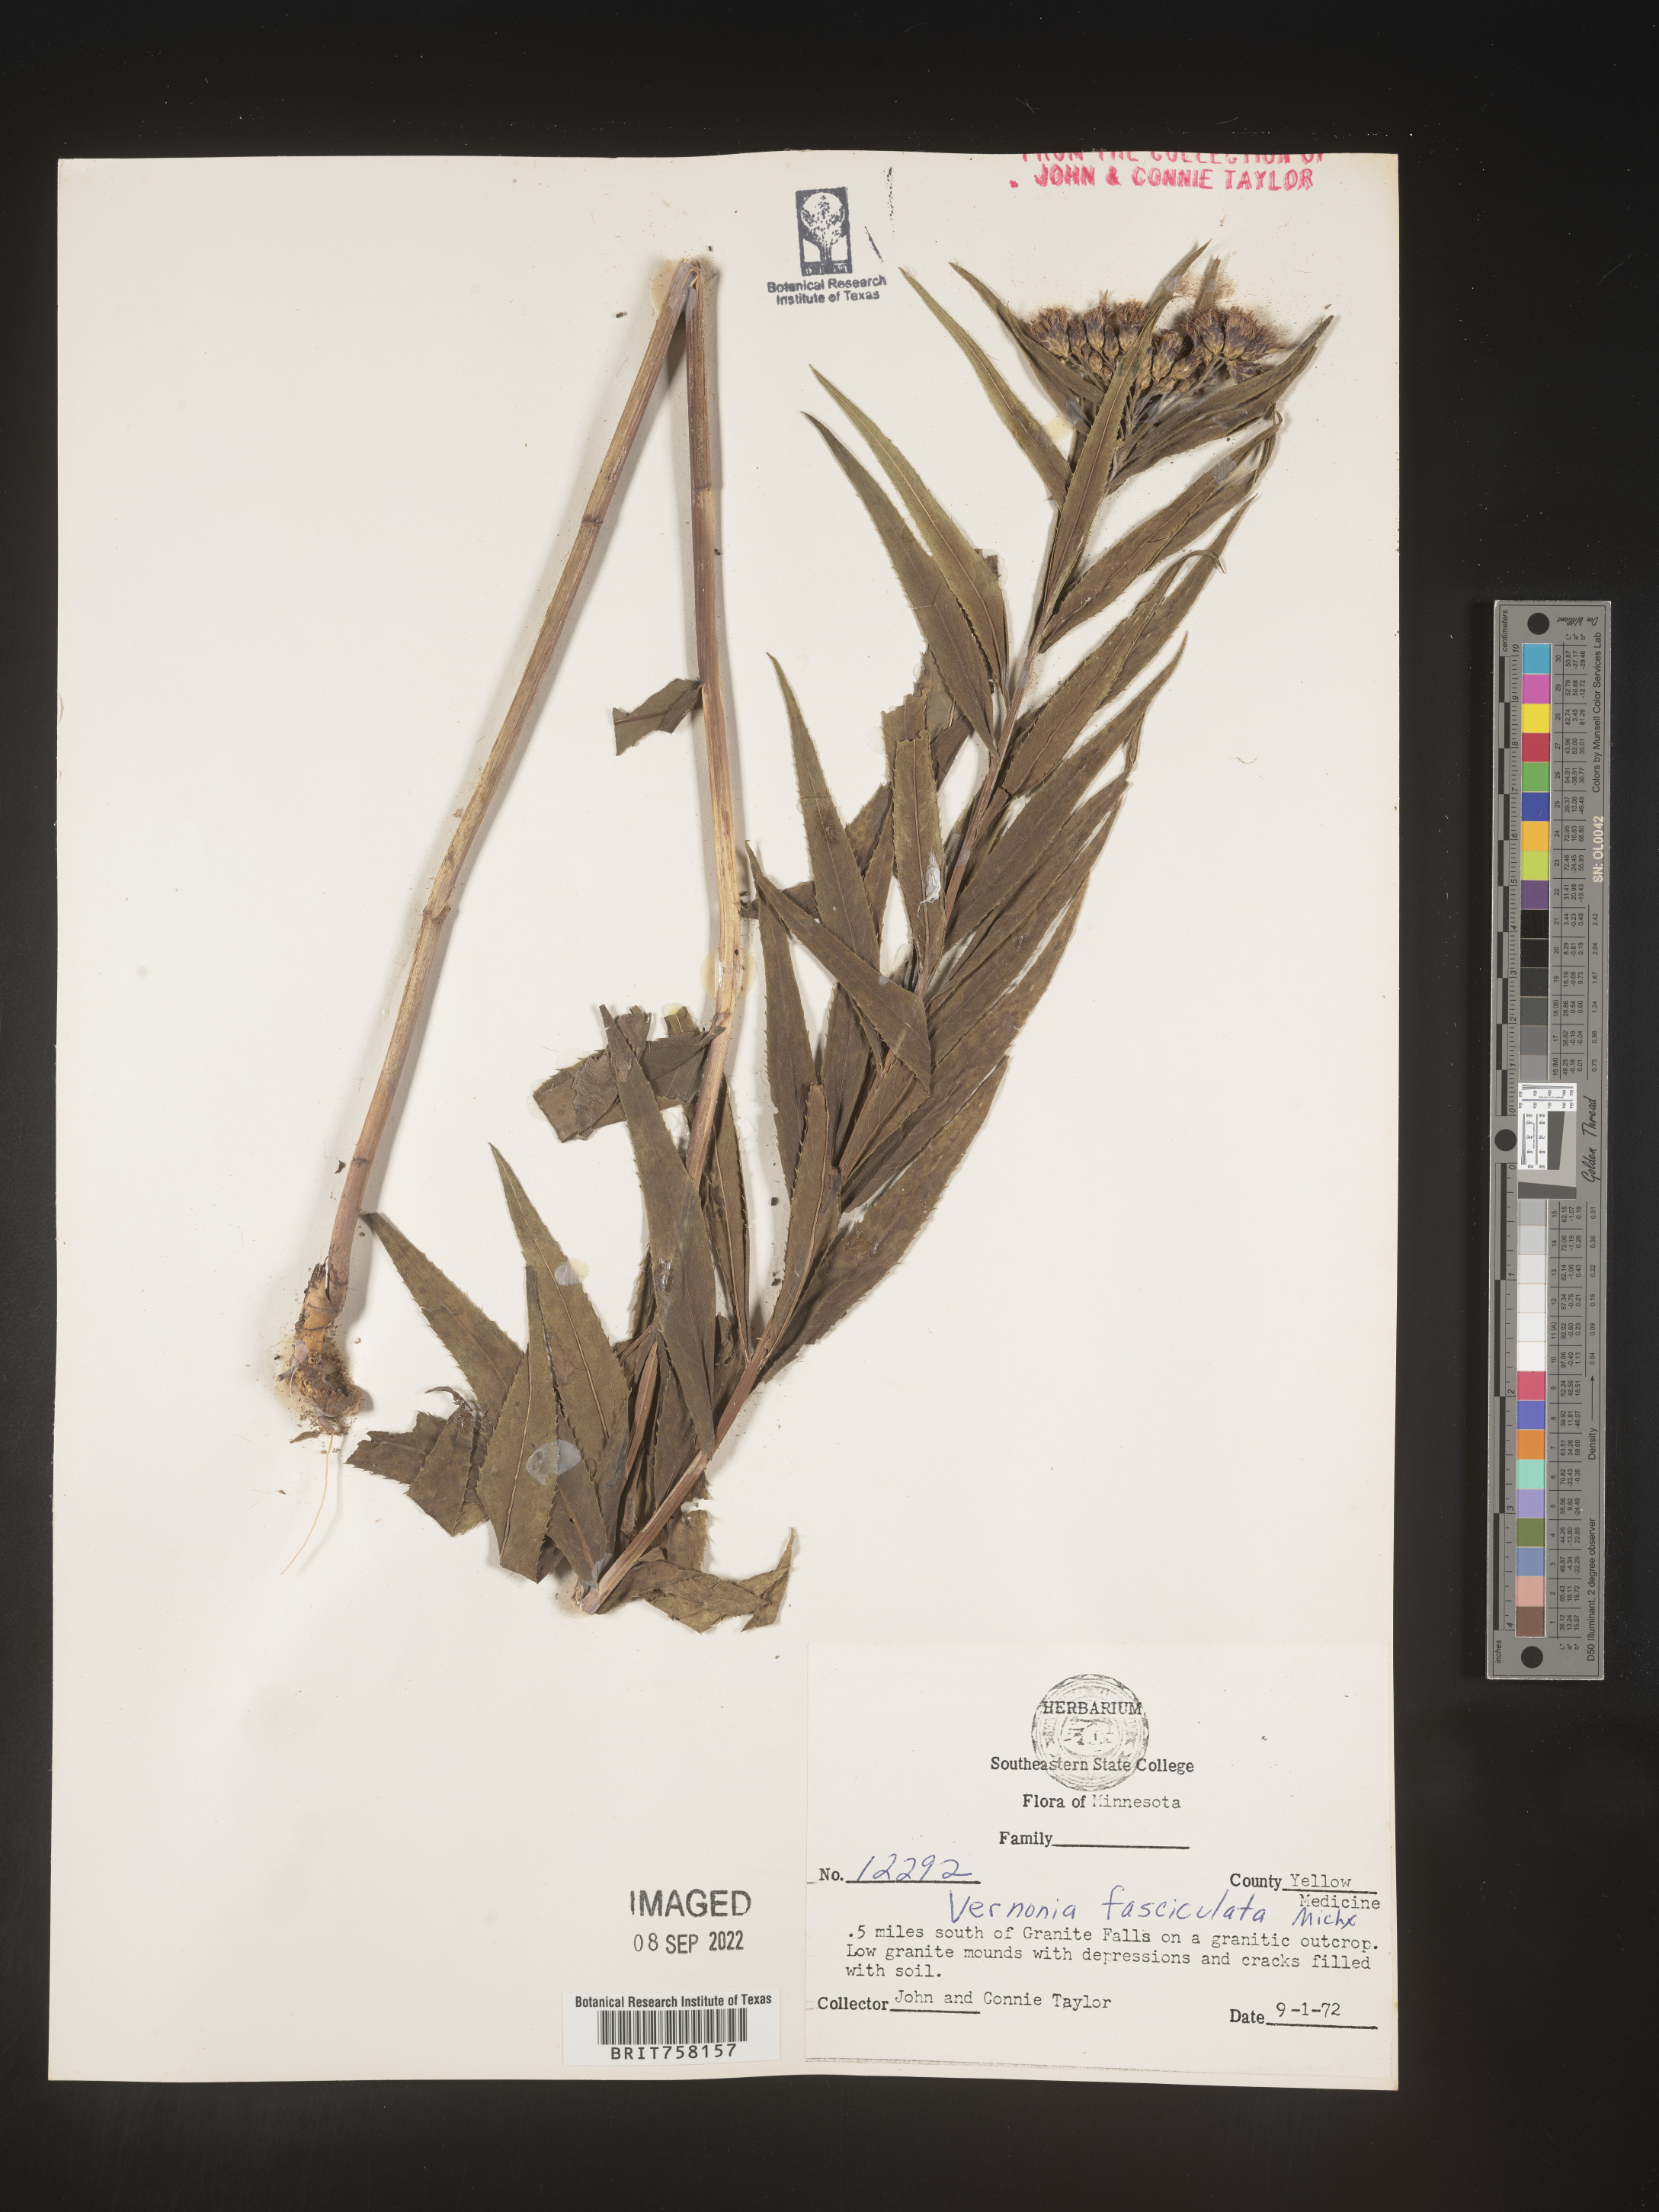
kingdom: Plantae
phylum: Tracheophyta
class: Magnoliopsida
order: Asterales
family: Asteraceae
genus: Vernonia
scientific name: Vernonia fasciculata
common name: Fascicled ironweed
